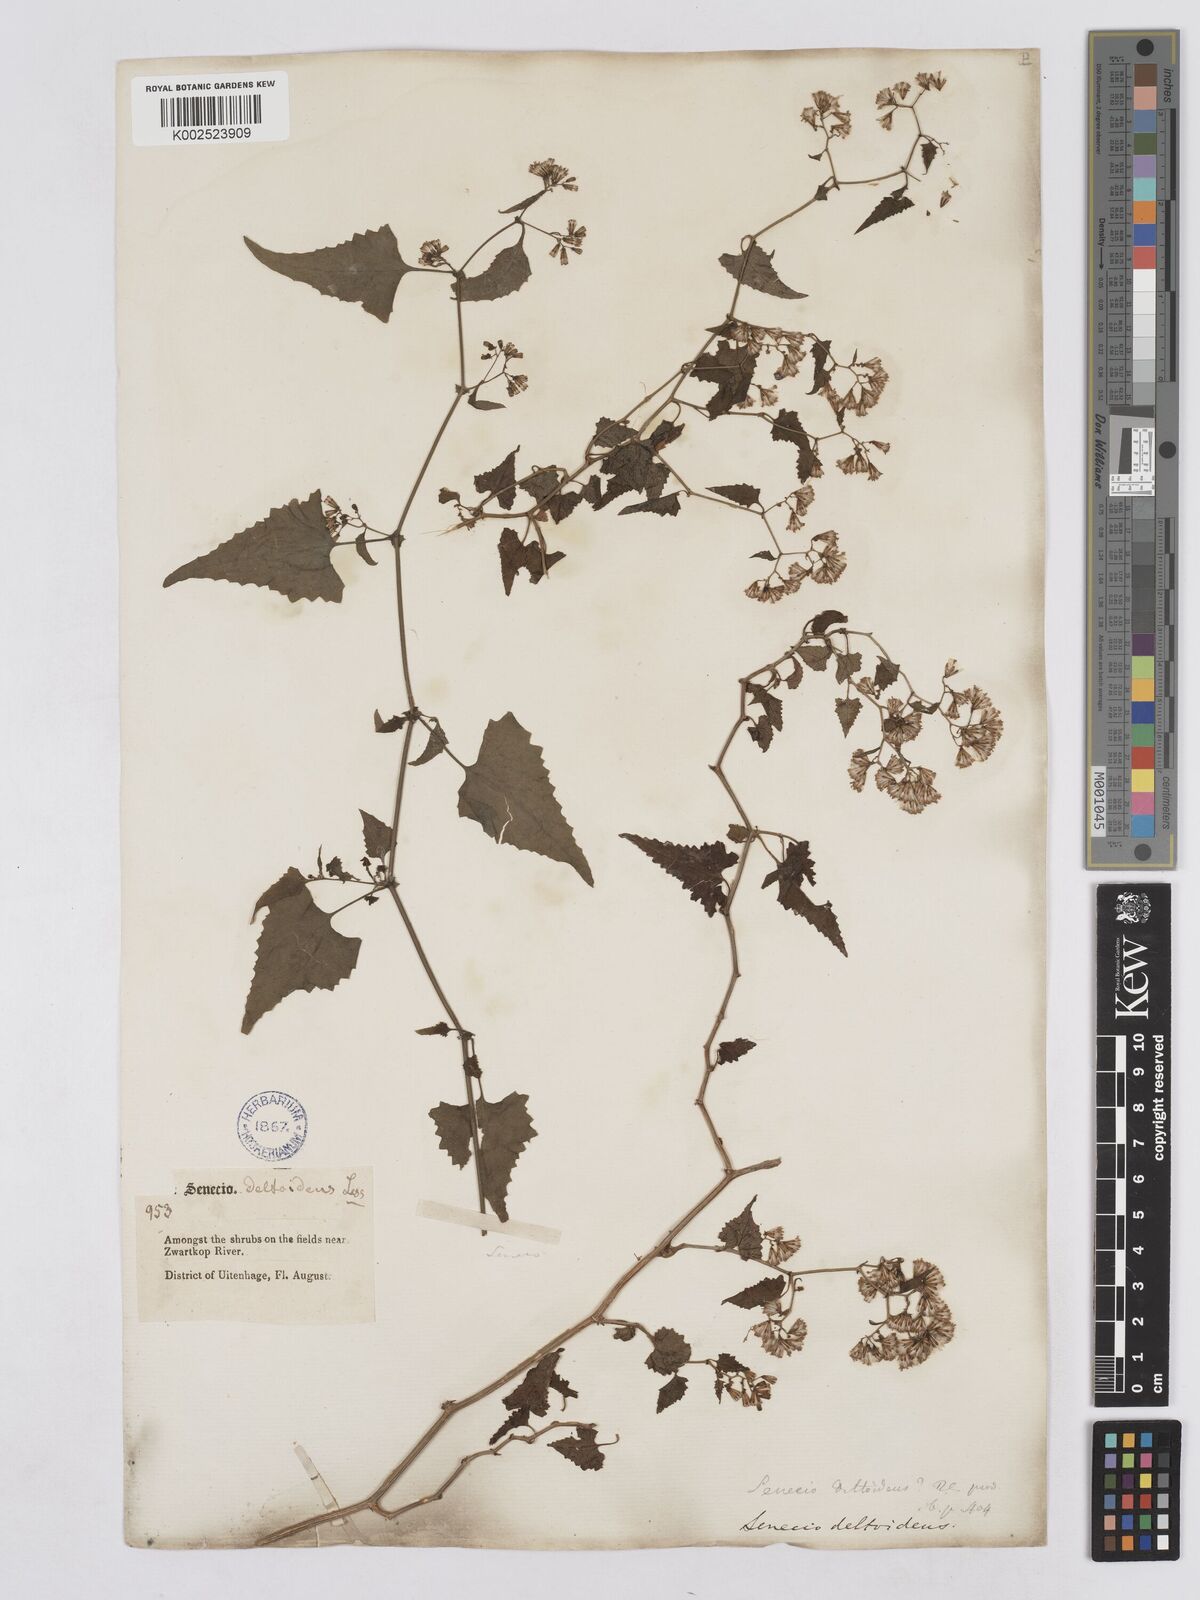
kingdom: Plantae
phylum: Tracheophyta
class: Magnoliopsida
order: Asterales
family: Asteraceae
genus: Senecio
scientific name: Senecio deltoideus
